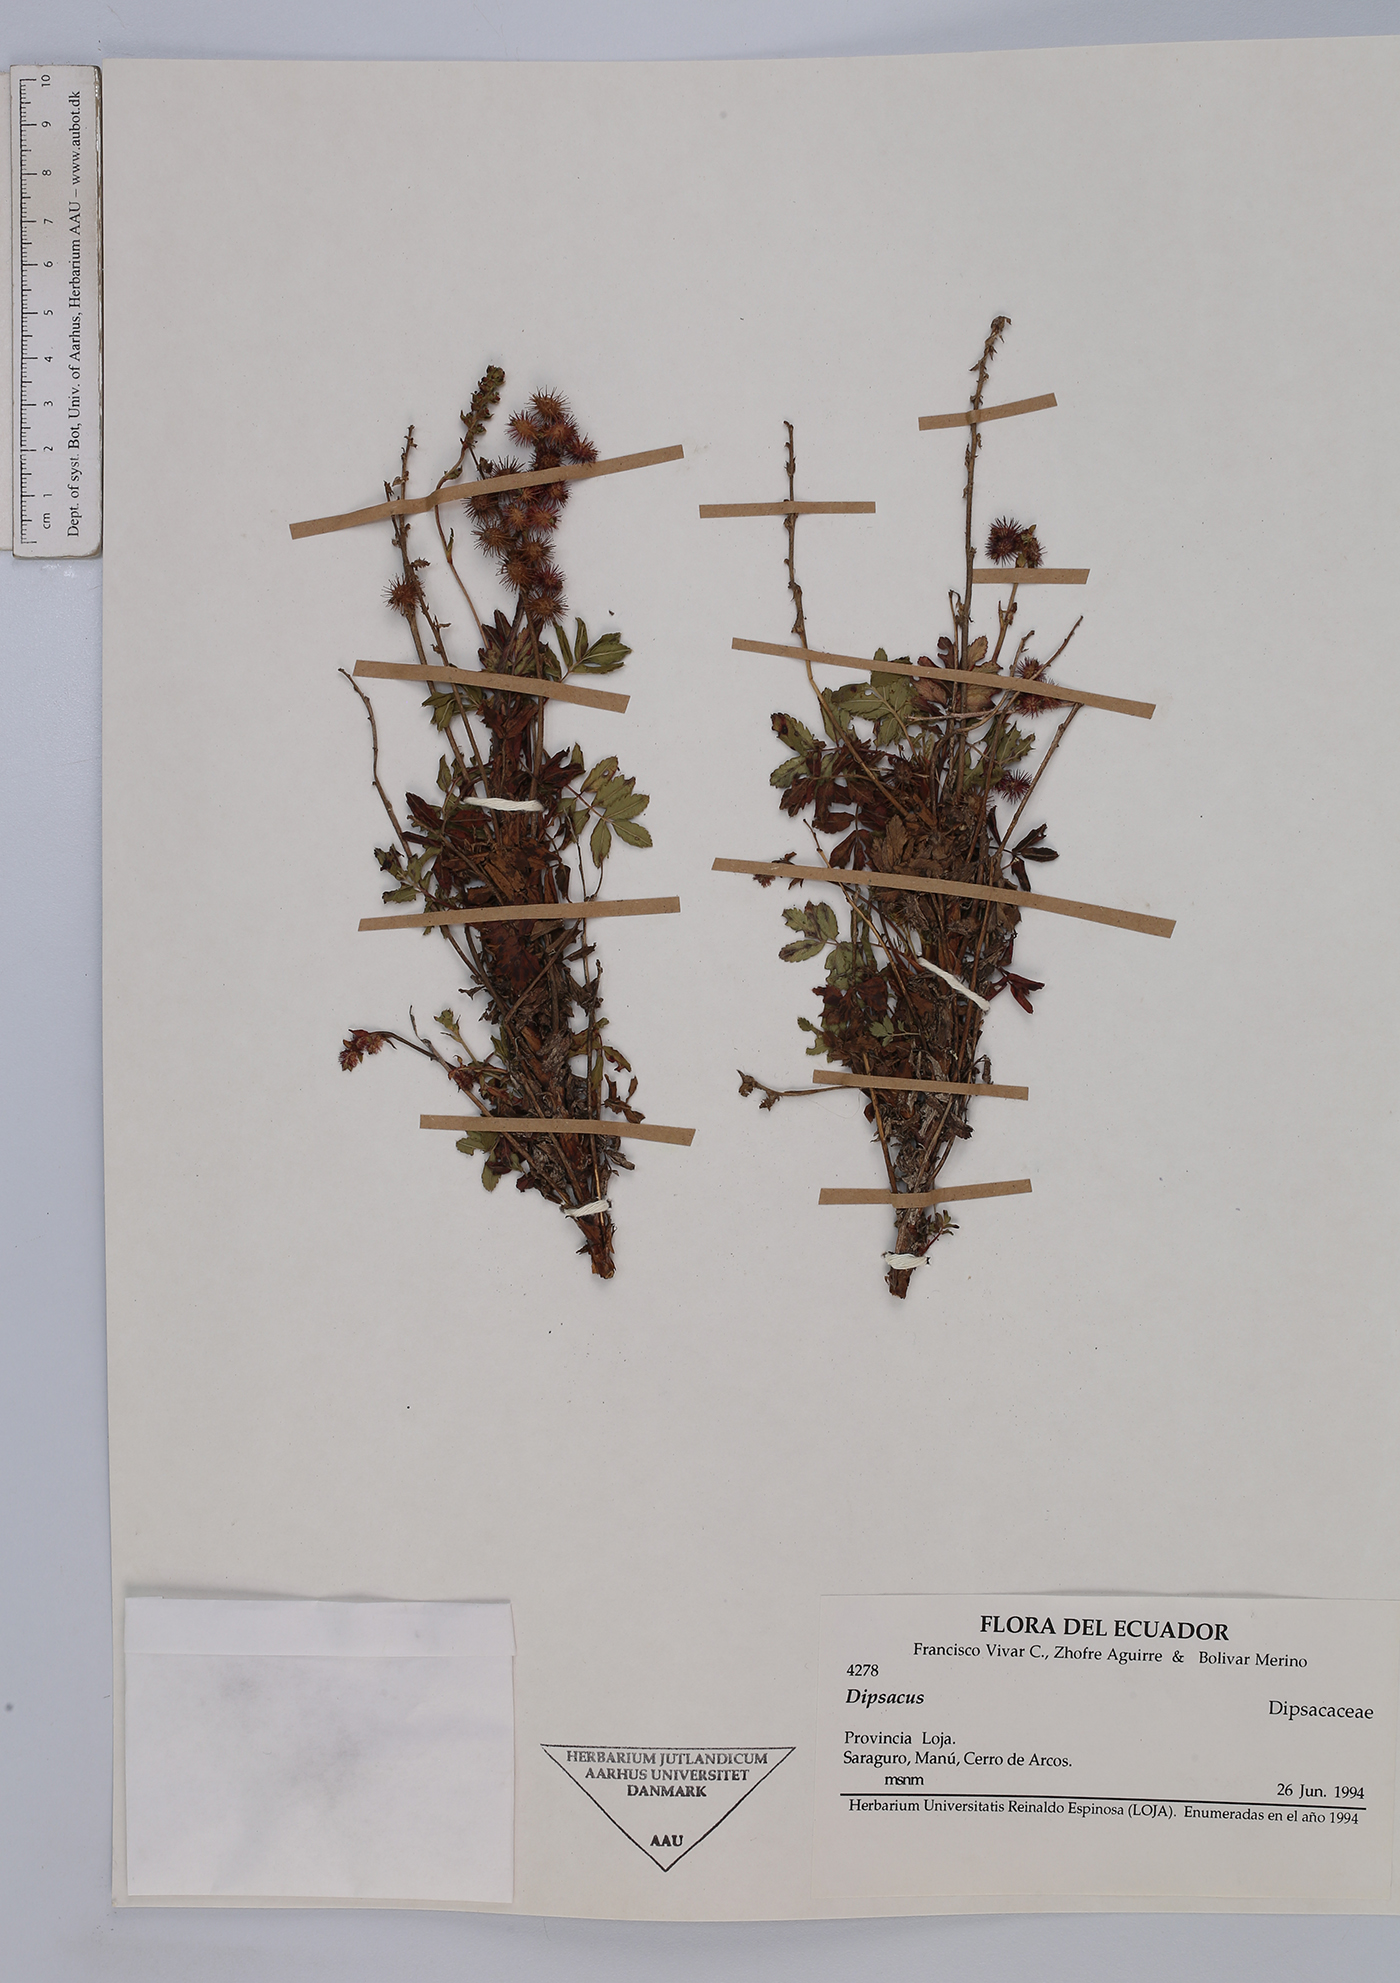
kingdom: Plantae
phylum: Tracheophyta
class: Magnoliopsida
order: Rosales
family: Rosaceae
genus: Acaena
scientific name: Acaena elongata
